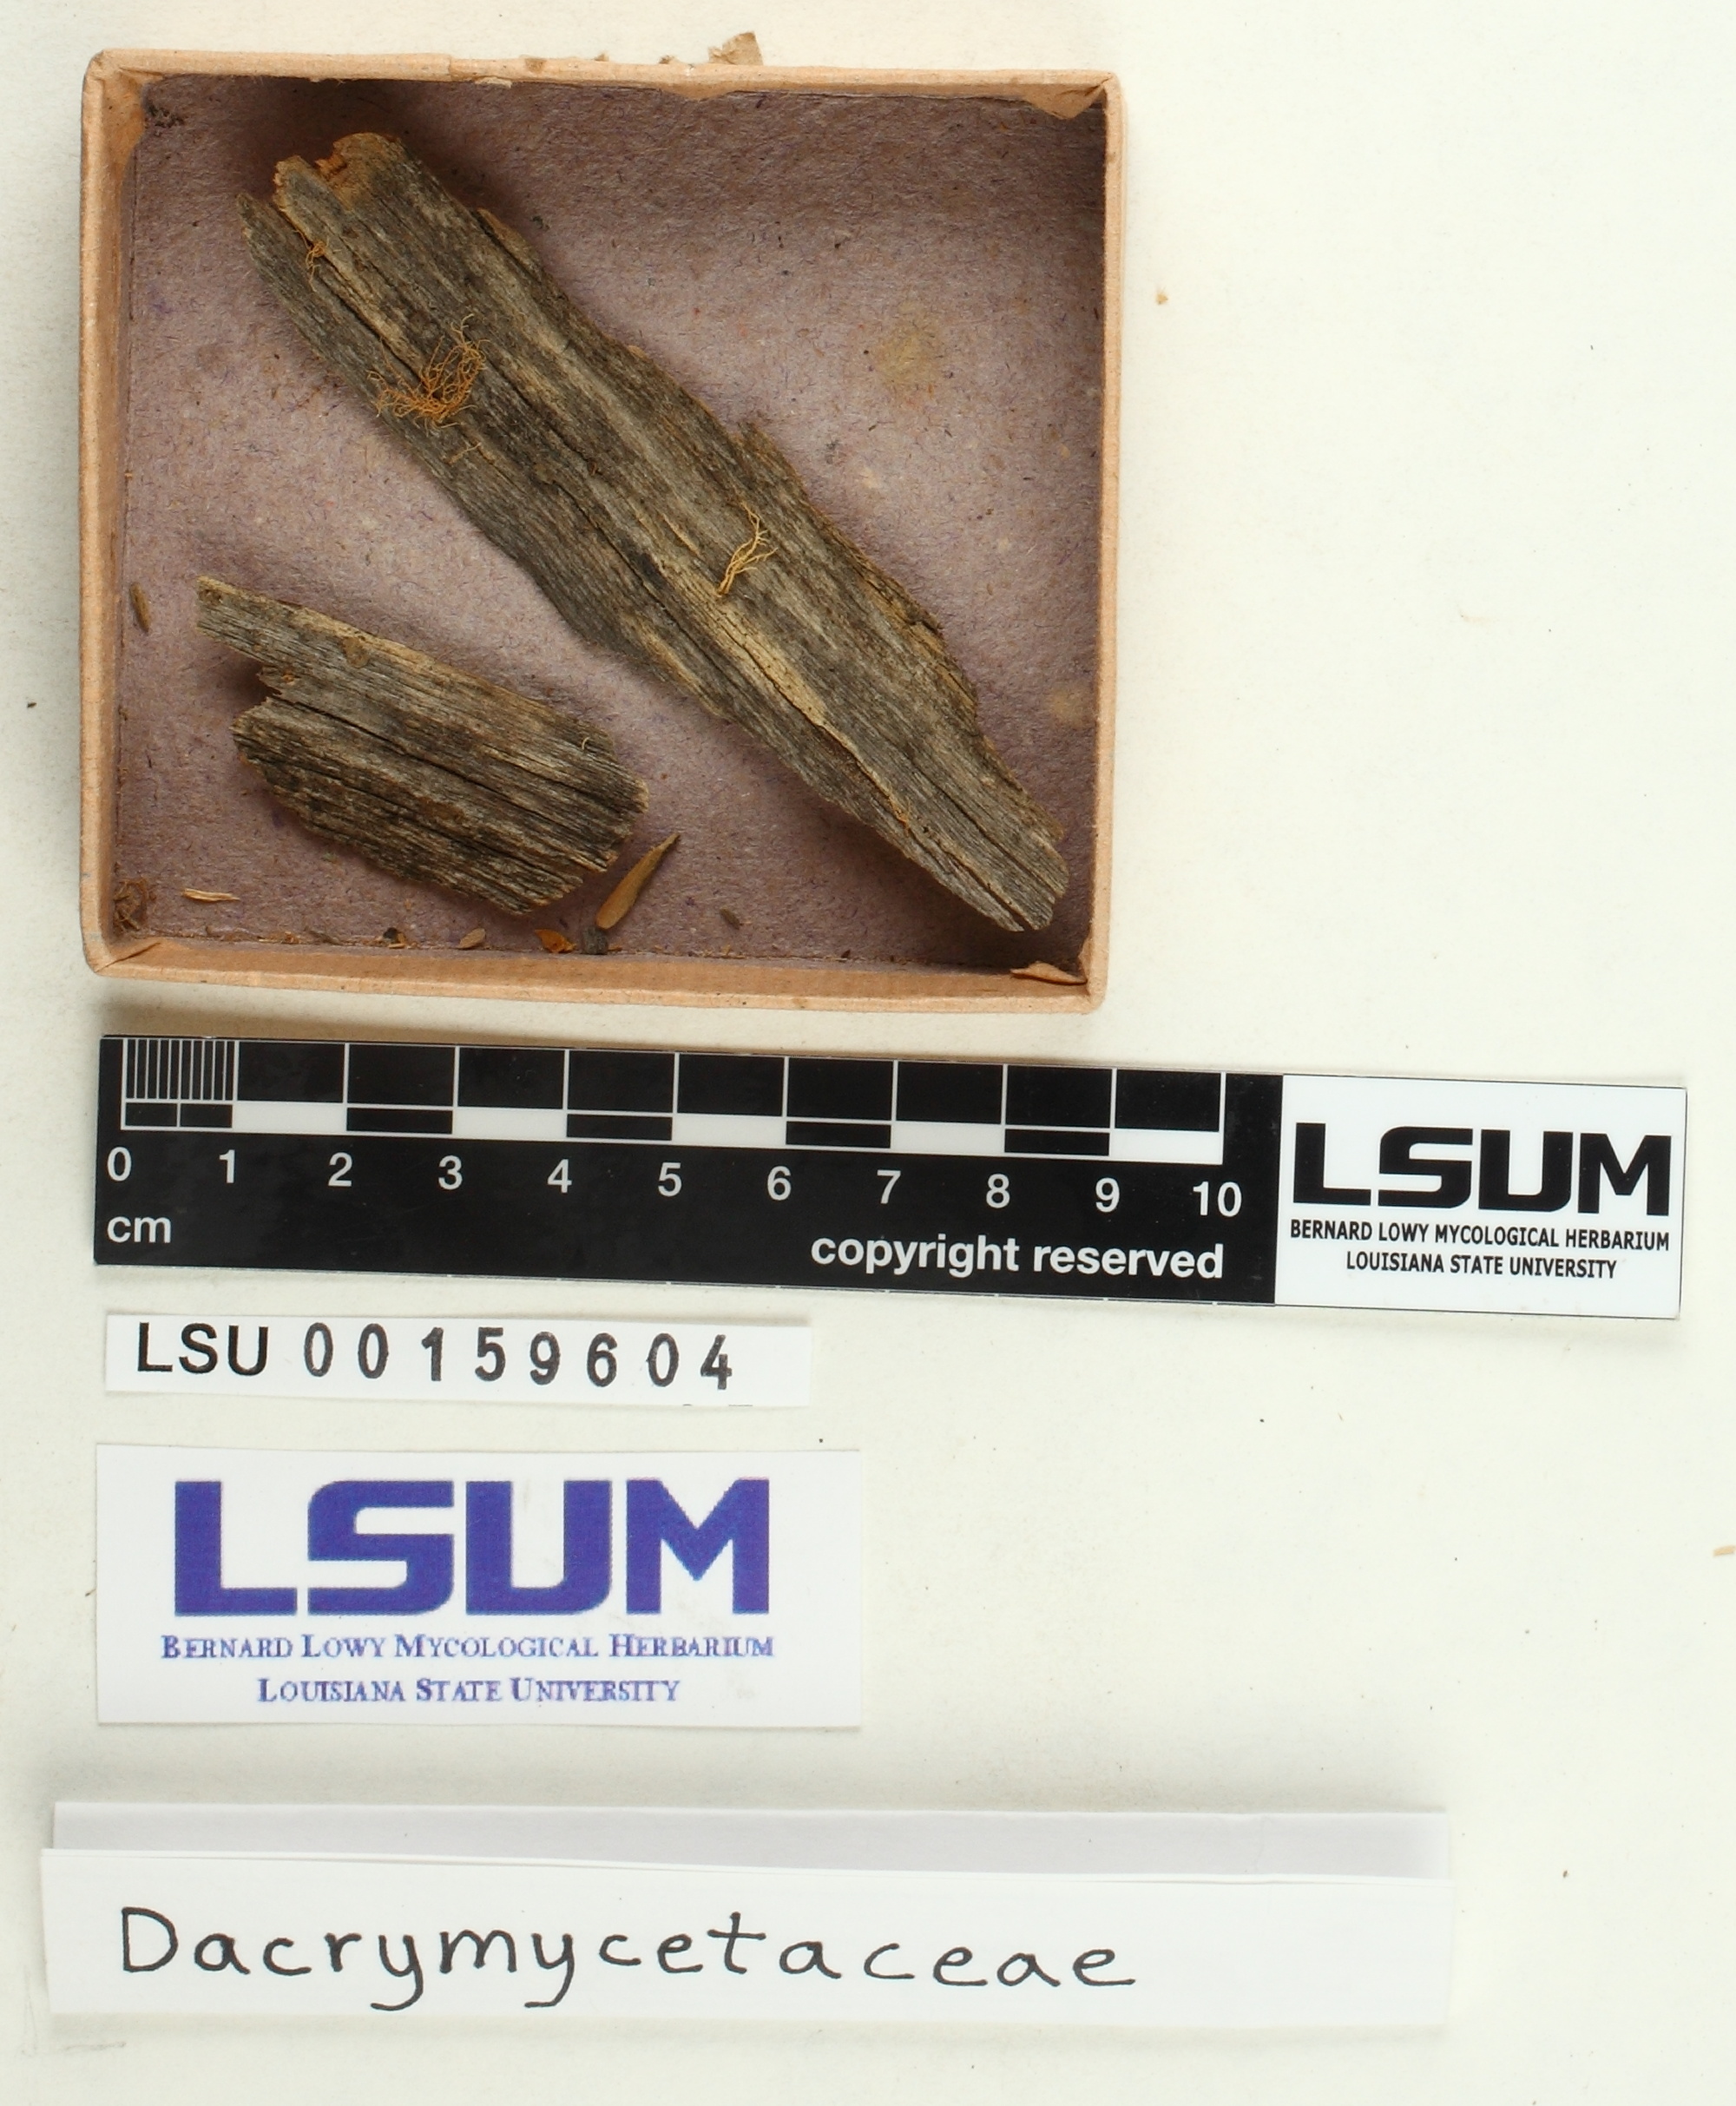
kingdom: Fungi
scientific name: Fungi
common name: Fungi
